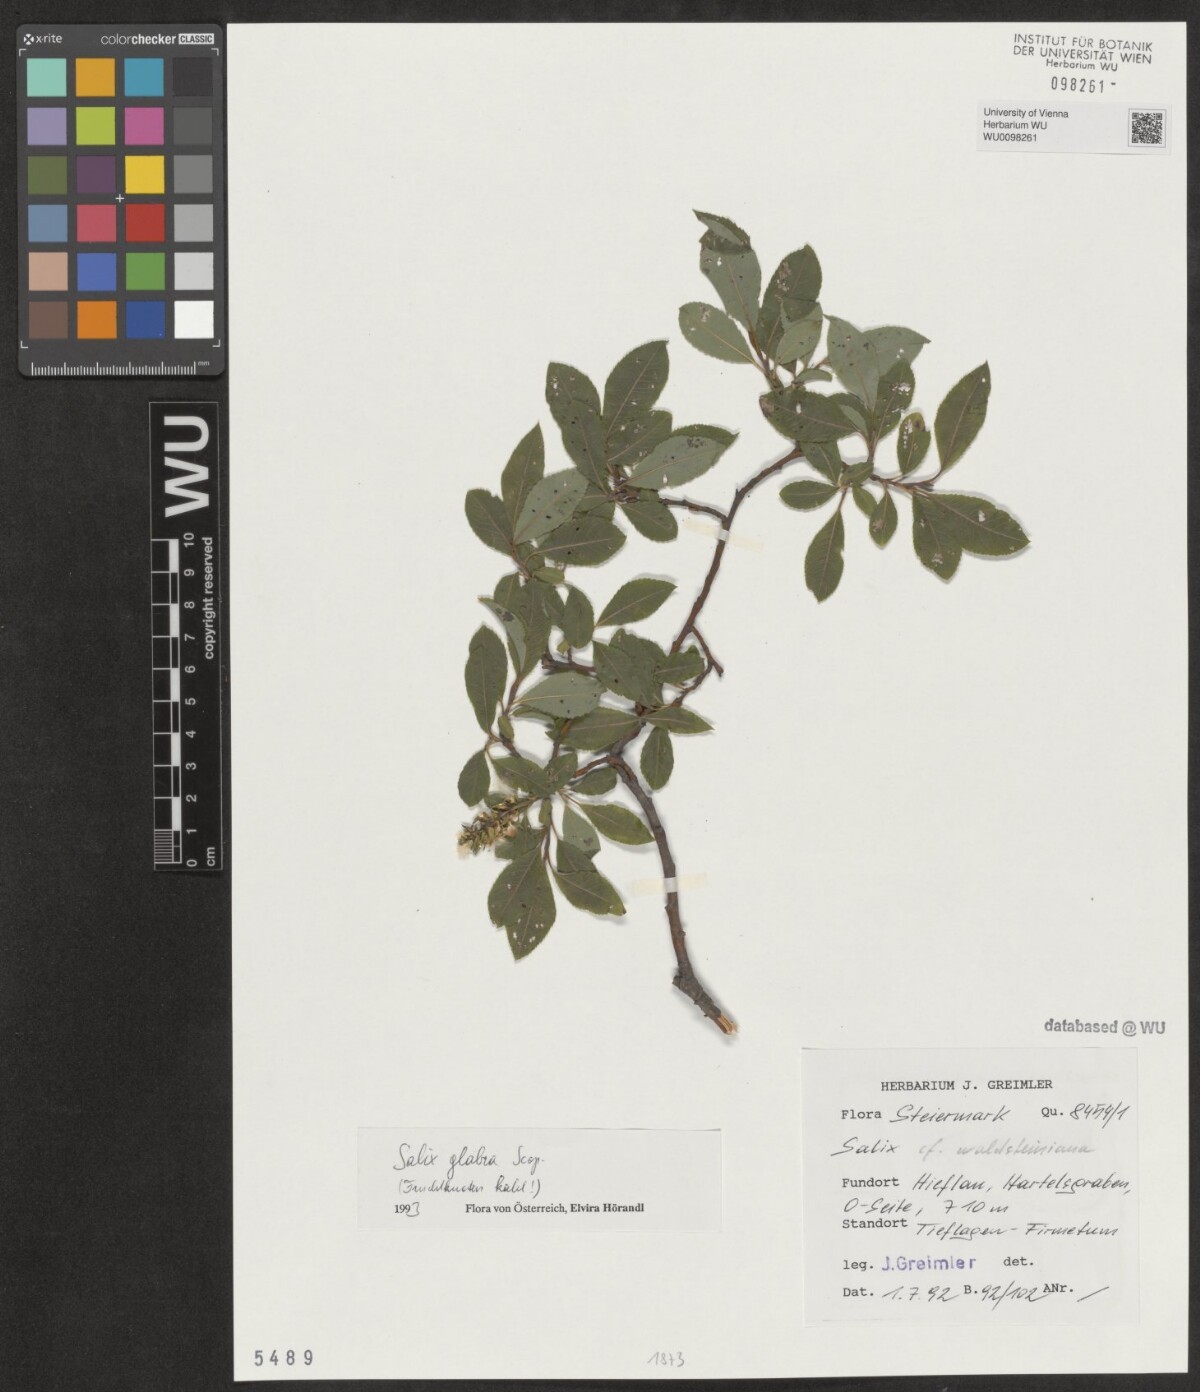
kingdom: Plantae
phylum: Tracheophyta
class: Magnoliopsida
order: Malpighiales
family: Salicaceae
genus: Salix
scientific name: Salix glabra
